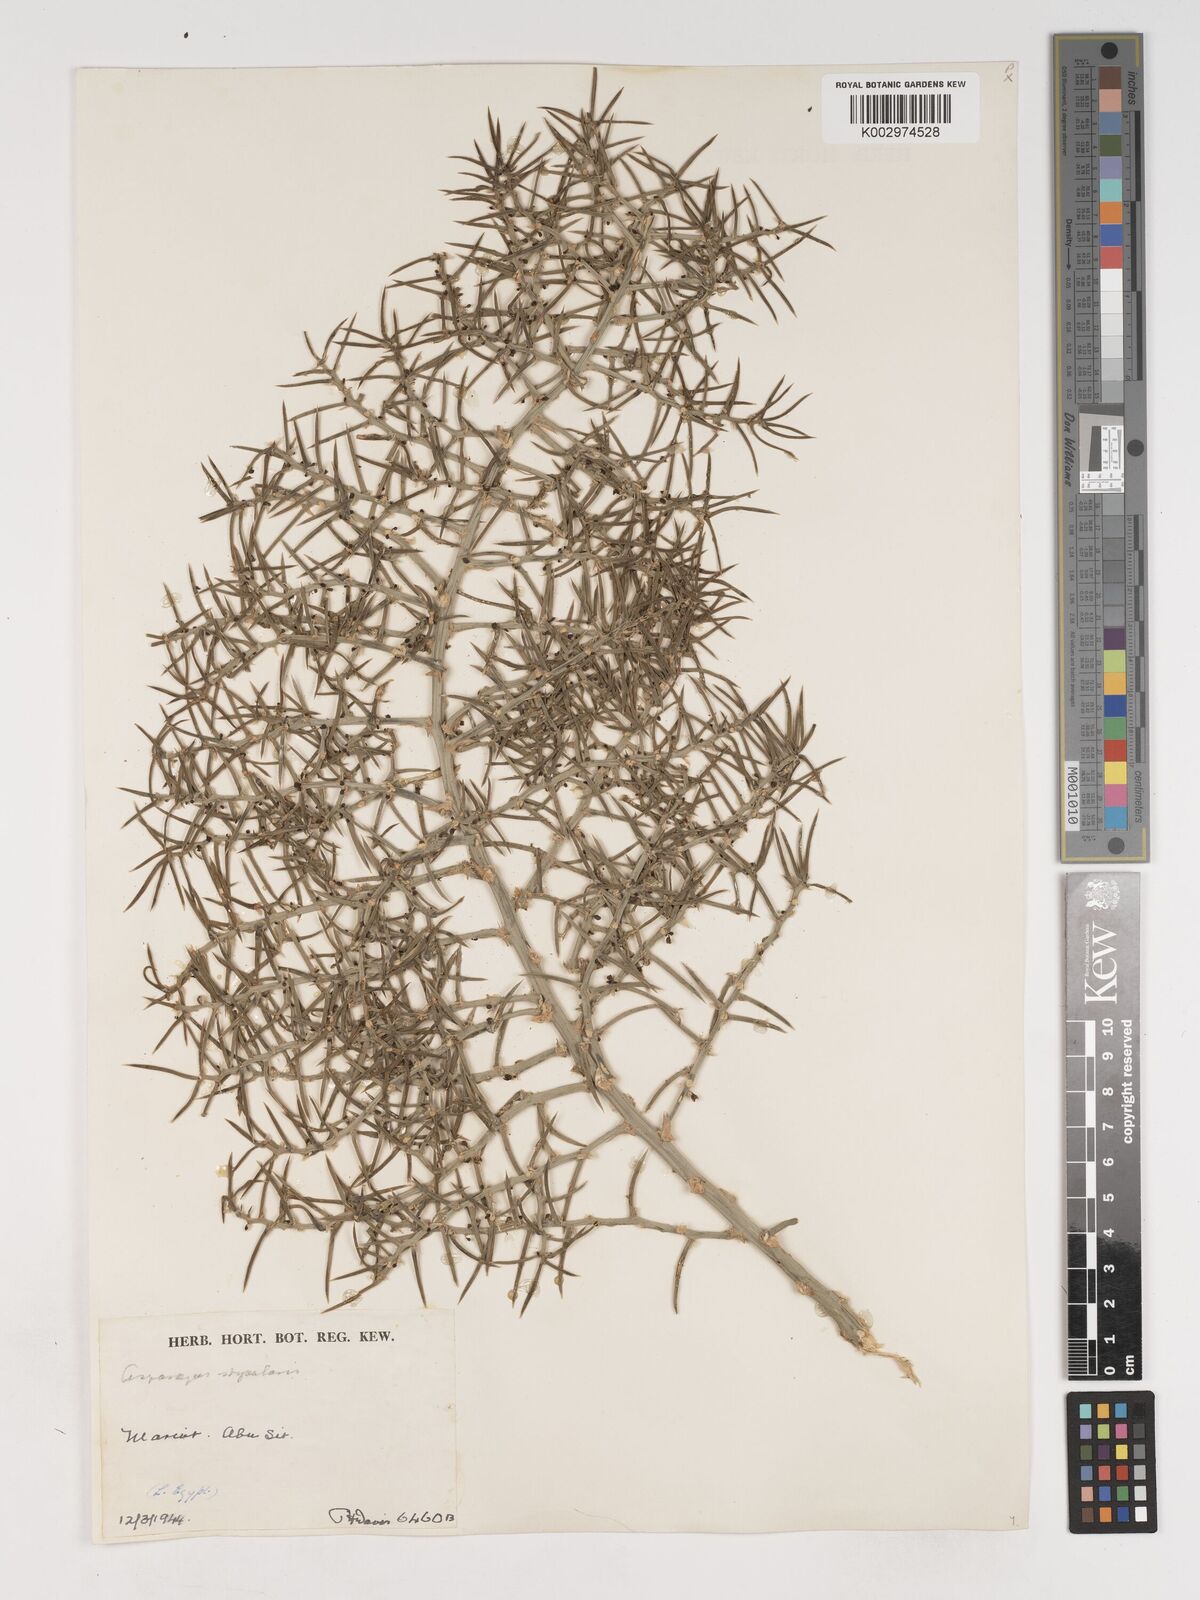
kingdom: Plantae
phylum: Tracheophyta
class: Liliopsida
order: Asparagales
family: Asparagaceae
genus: Asparagus
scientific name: Asparagus horridus
